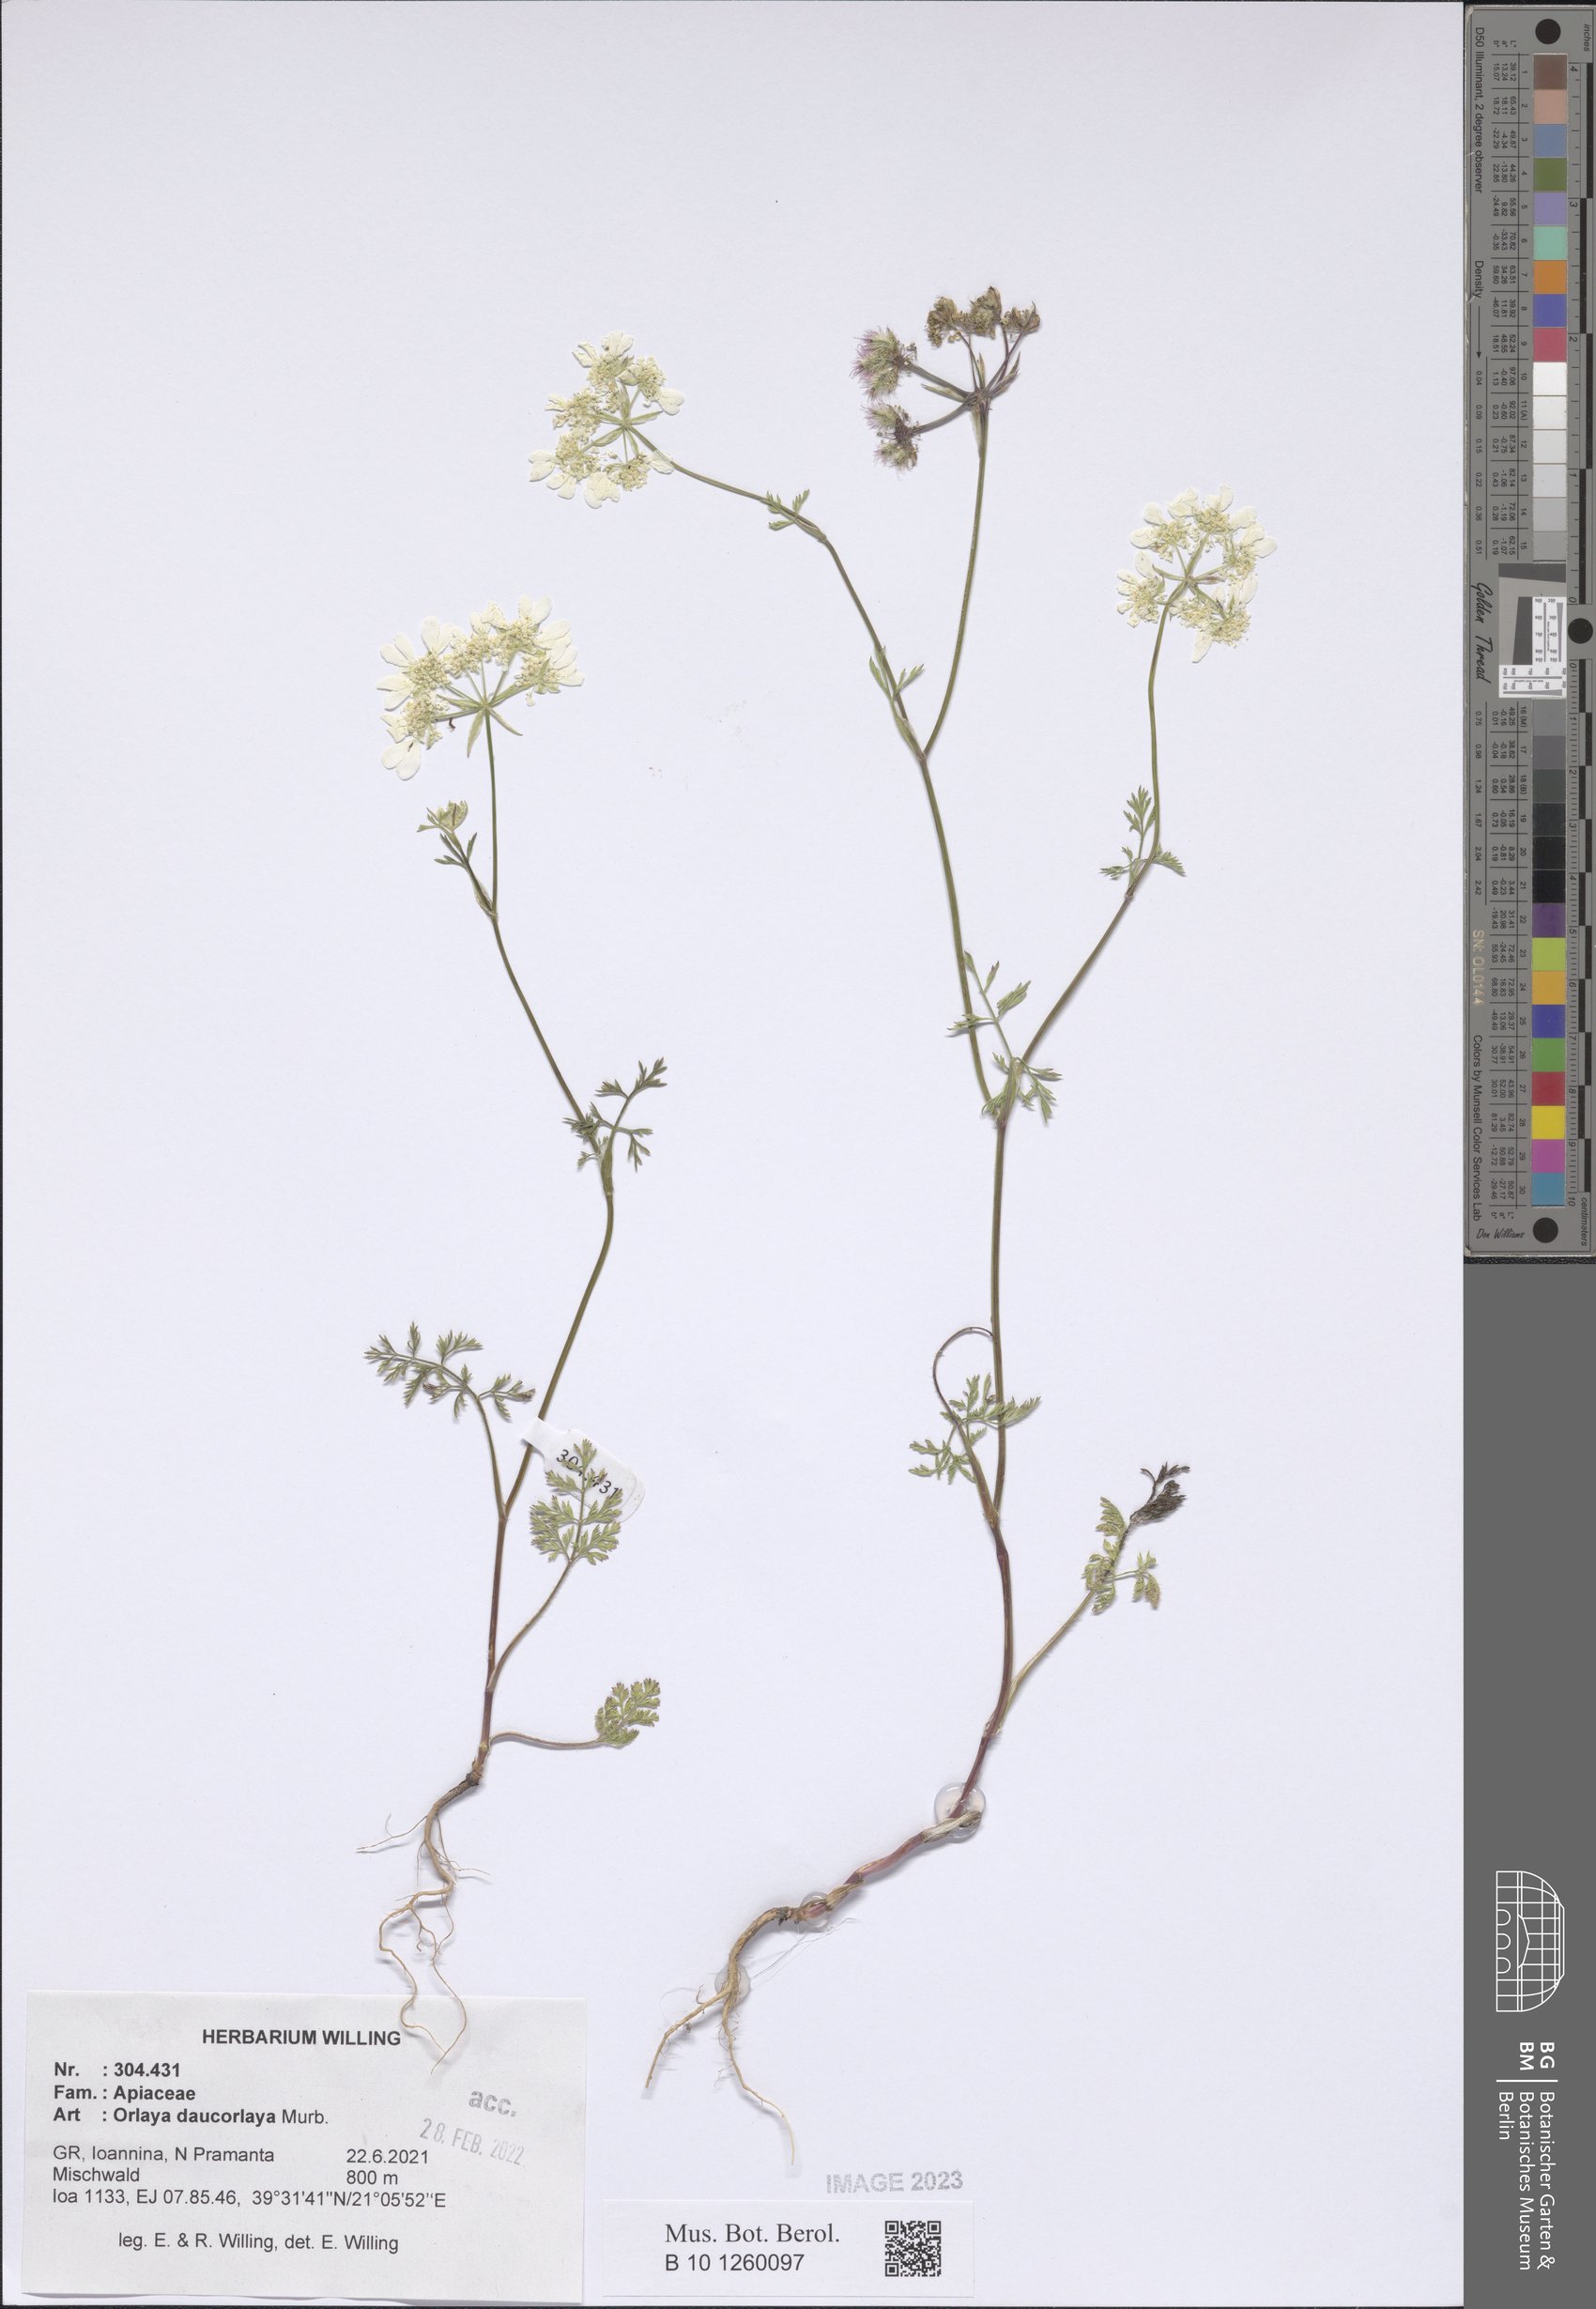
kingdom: Plantae
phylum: Tracheophyta
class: Magnoliopsida
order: Apiales
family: Apiaceae
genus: Orlaya
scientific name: Orlaya daucorlaya
